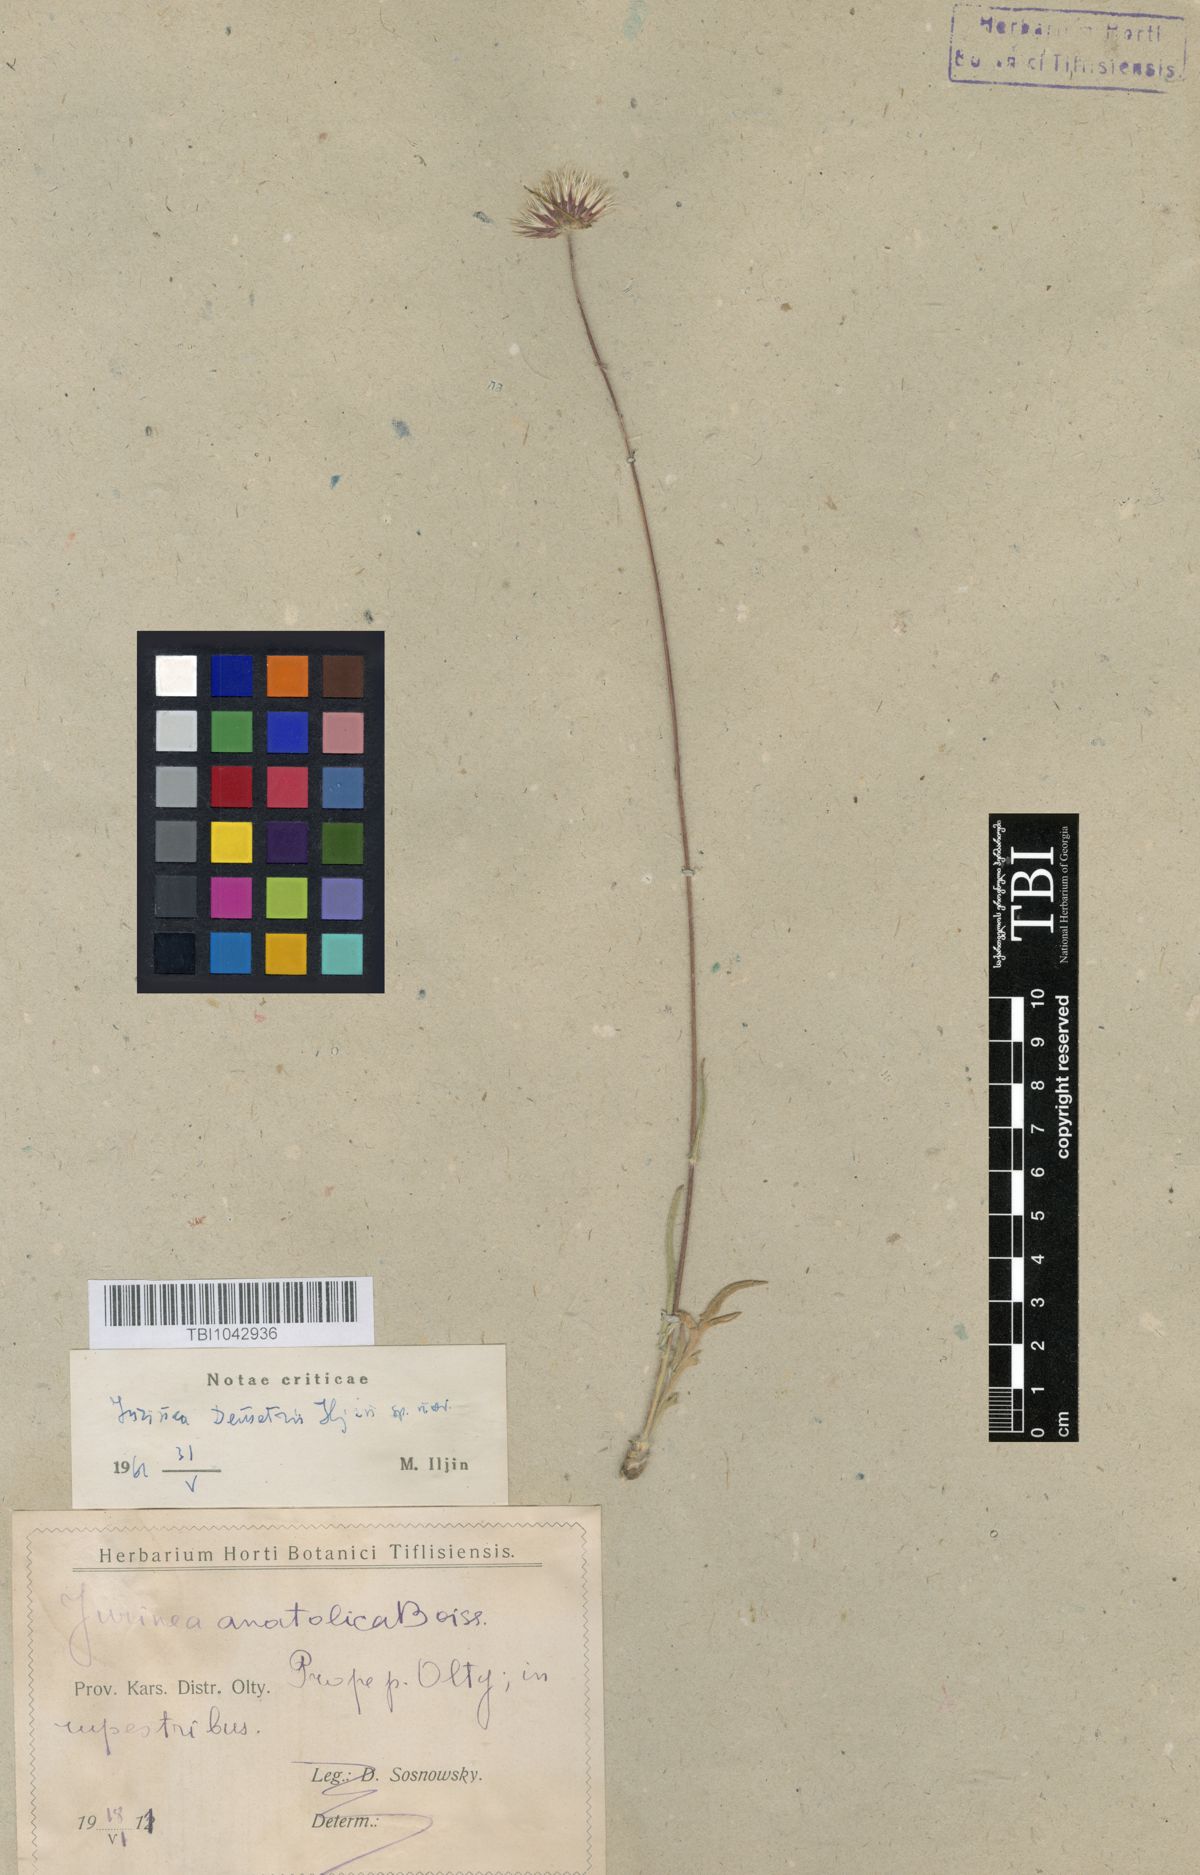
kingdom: Plantae
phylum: Tracheophyta
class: Magnoliopsida
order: Asterales
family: Asteraceae
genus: Jurinea
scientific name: Jurinea consanguinea
